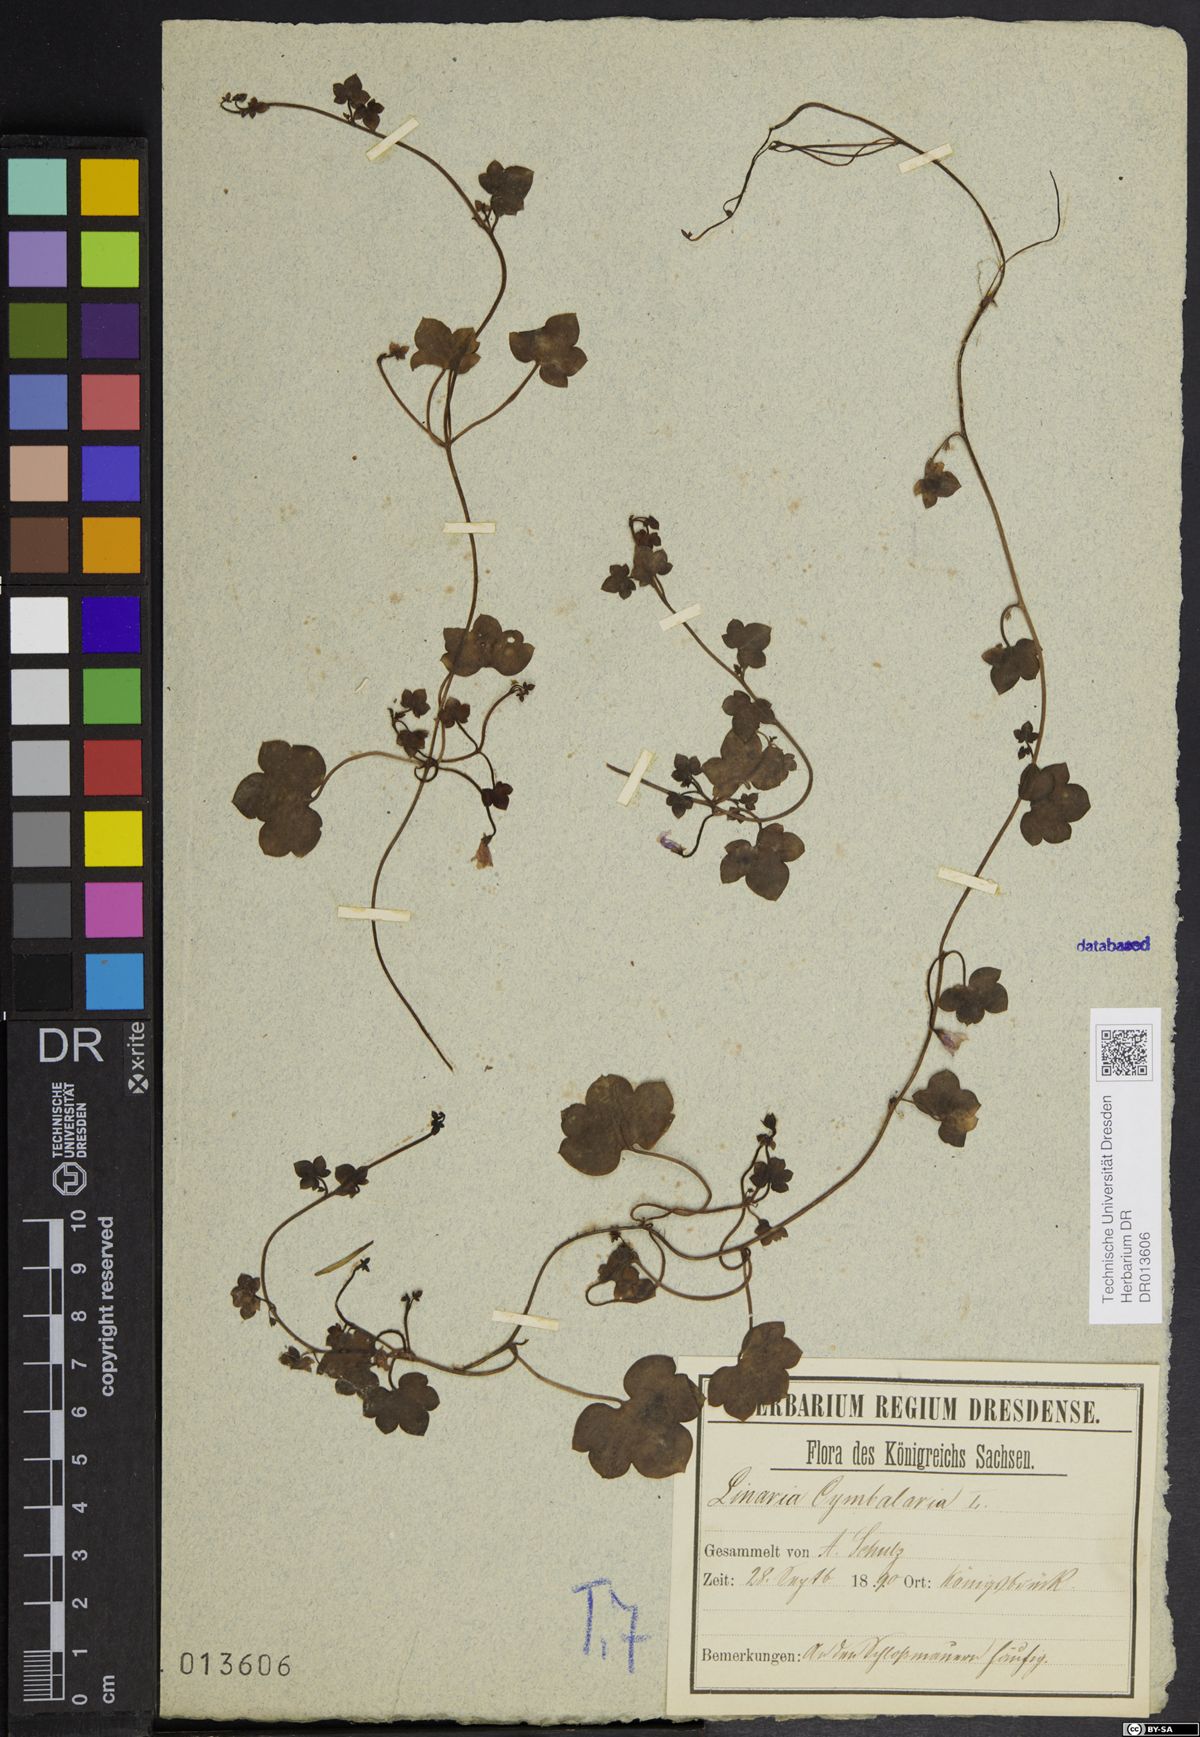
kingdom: Plantae
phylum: Tracheophyta
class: Magnoliopsida
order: Lamiales
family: Plantaginaceae
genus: Cymbalaria
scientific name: Cymbalaria muralis
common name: Ivy-leaved toadflax
